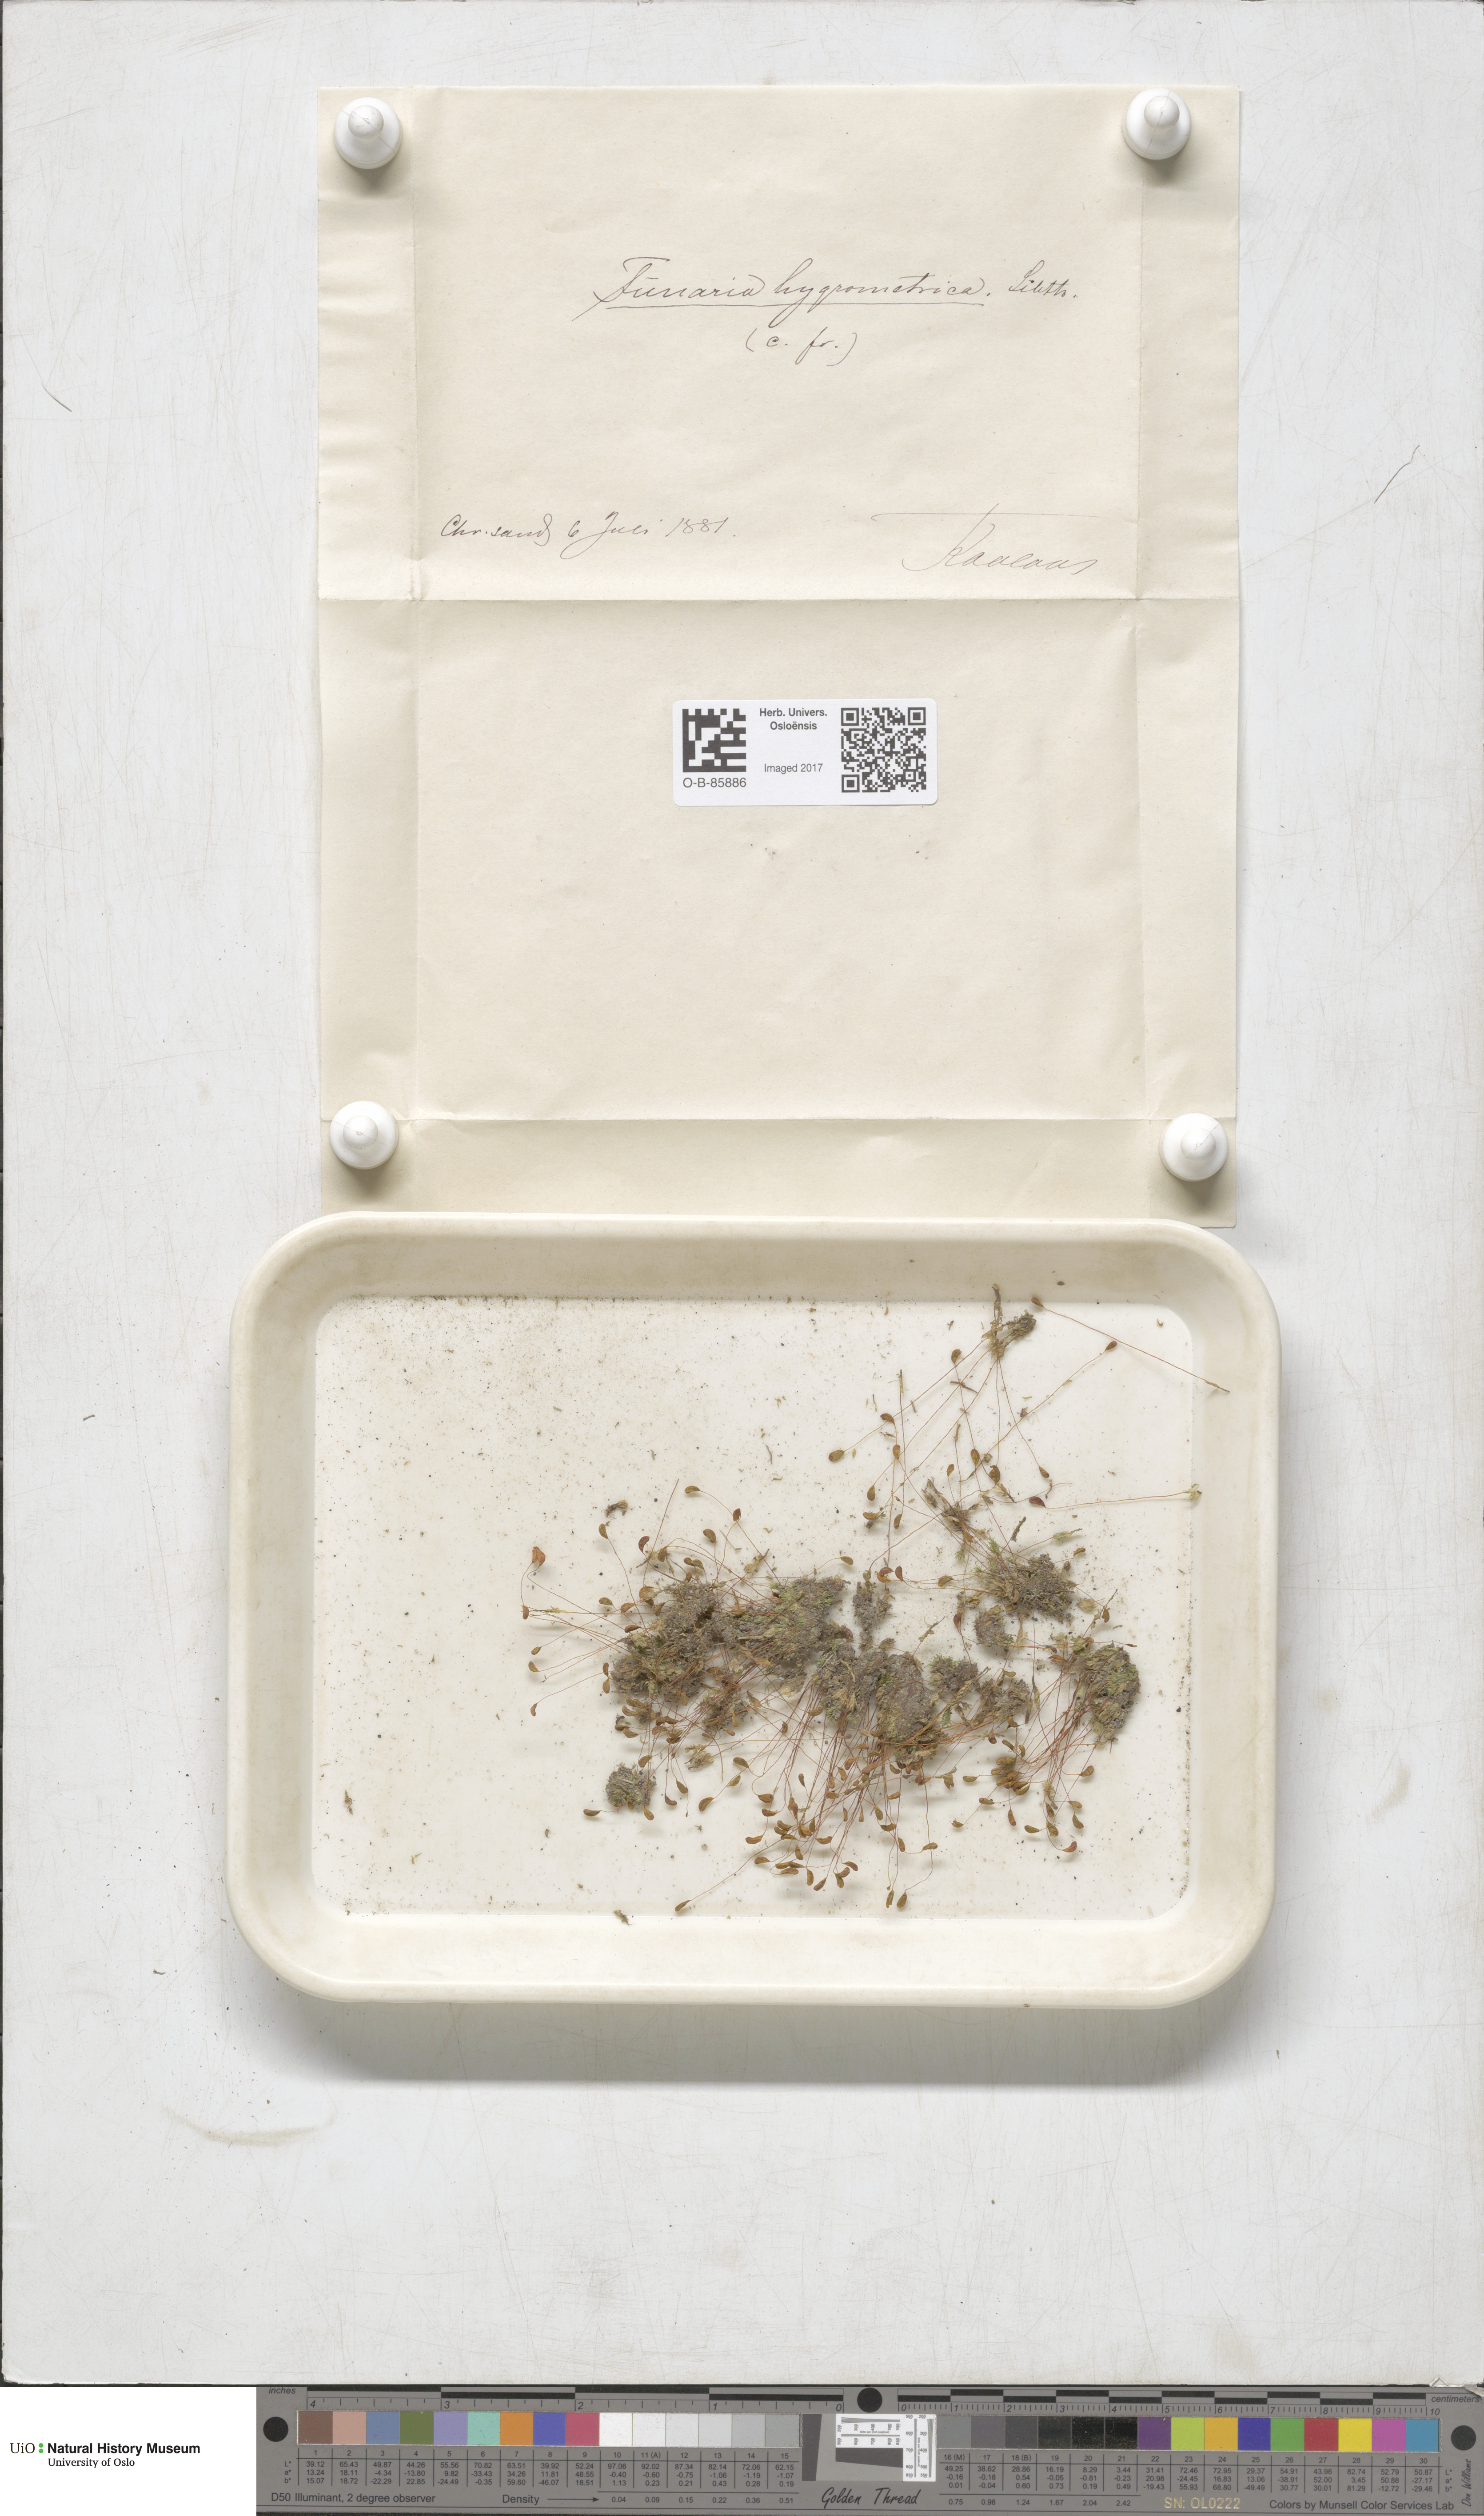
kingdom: Plantae
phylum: Bryophyta
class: Bryopsida
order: Funariales
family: Funariaceae
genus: Funaria
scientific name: Funaria hygrometrica
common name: Common cord moss
